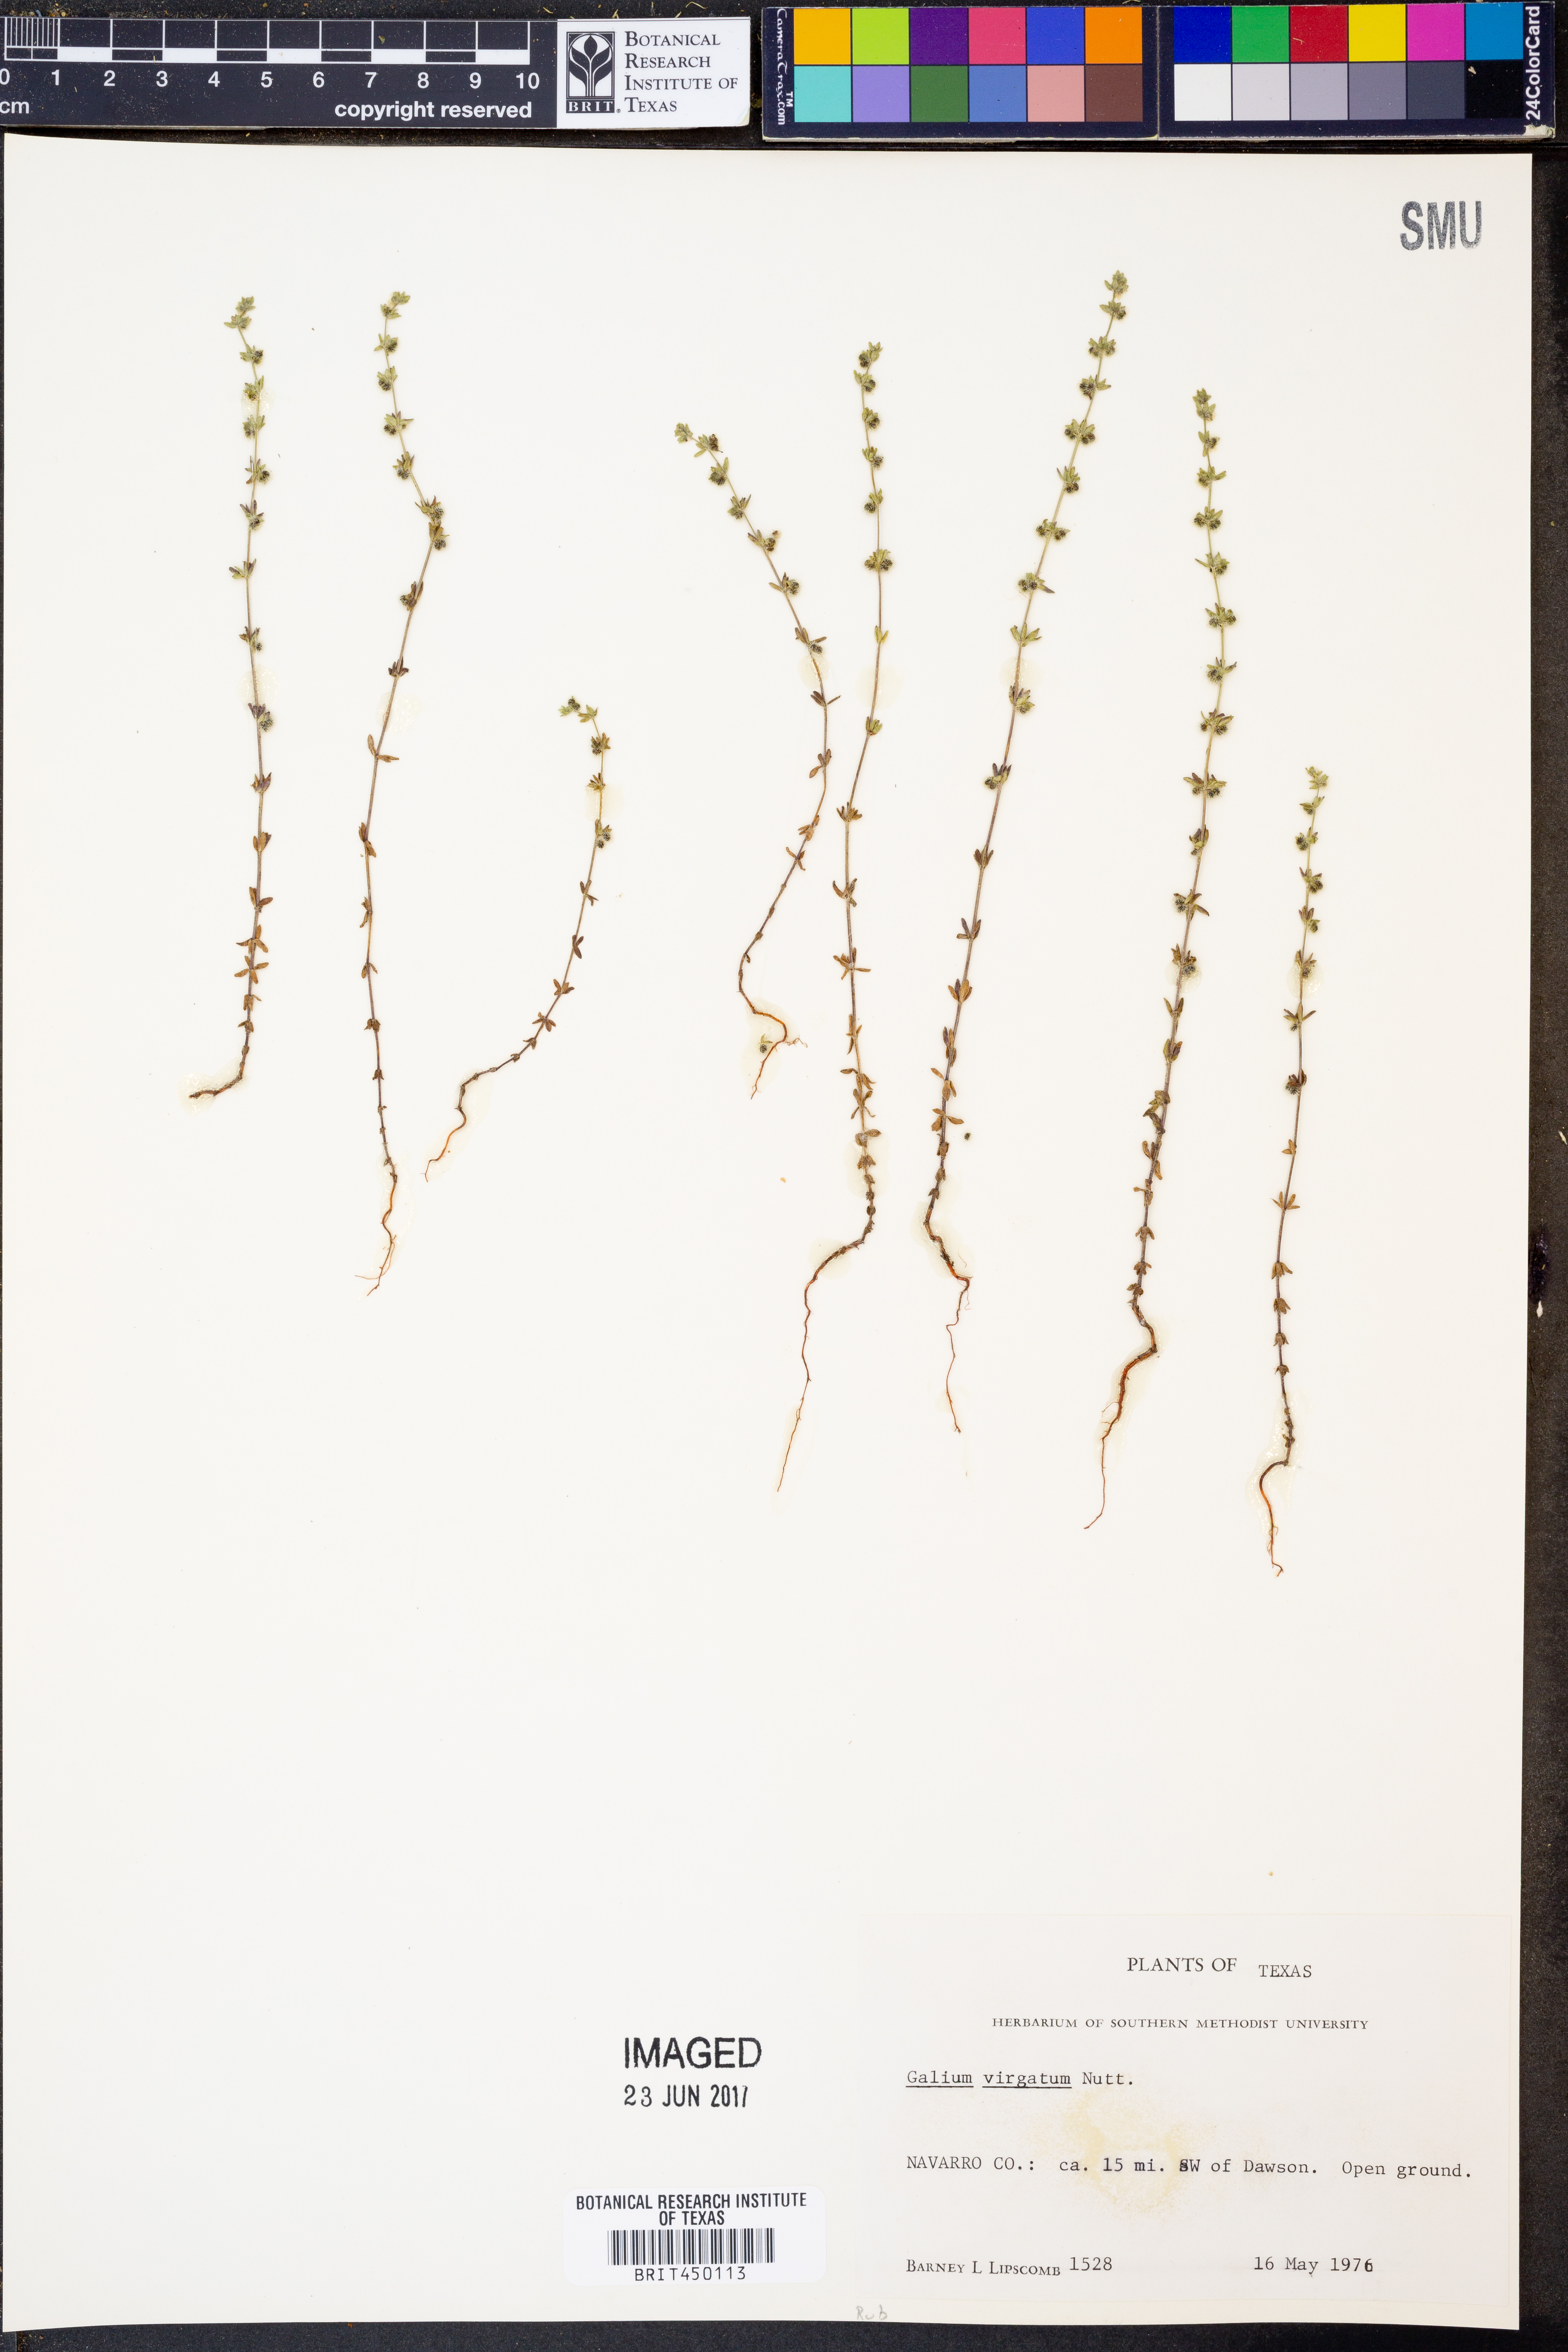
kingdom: Plantae
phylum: Tracheophyta
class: Magnoliopsida
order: Gentianales
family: Rubiaceae
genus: Galium
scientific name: Galium virgatum
